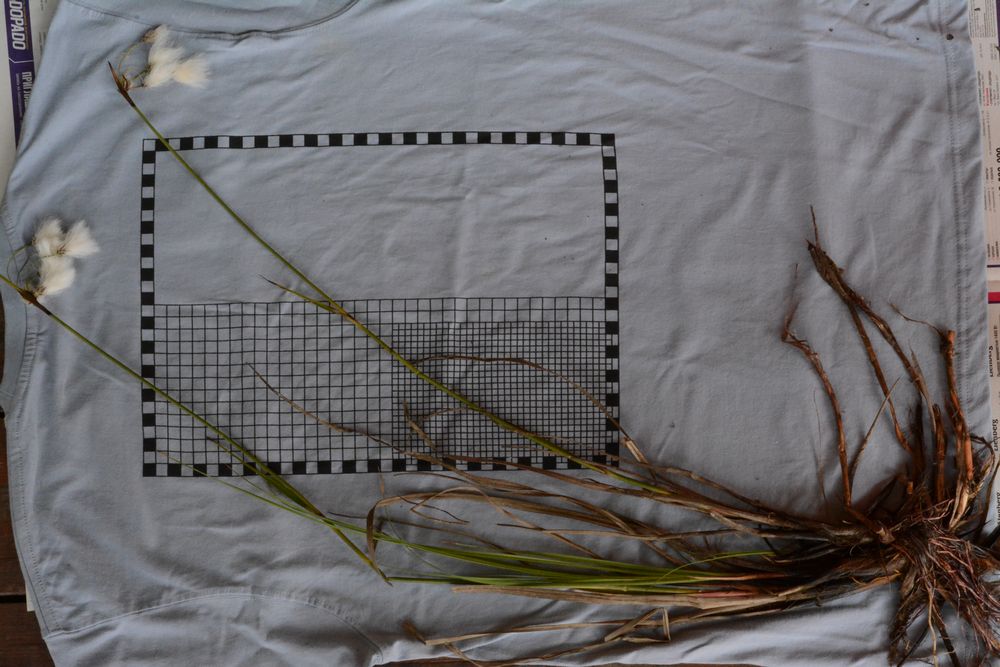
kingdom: Plantae
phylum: Tracheophyta
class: Liliopsida
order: Poales
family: Cyperaceae
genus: Eriophorum
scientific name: Eriophorum angustifolium
